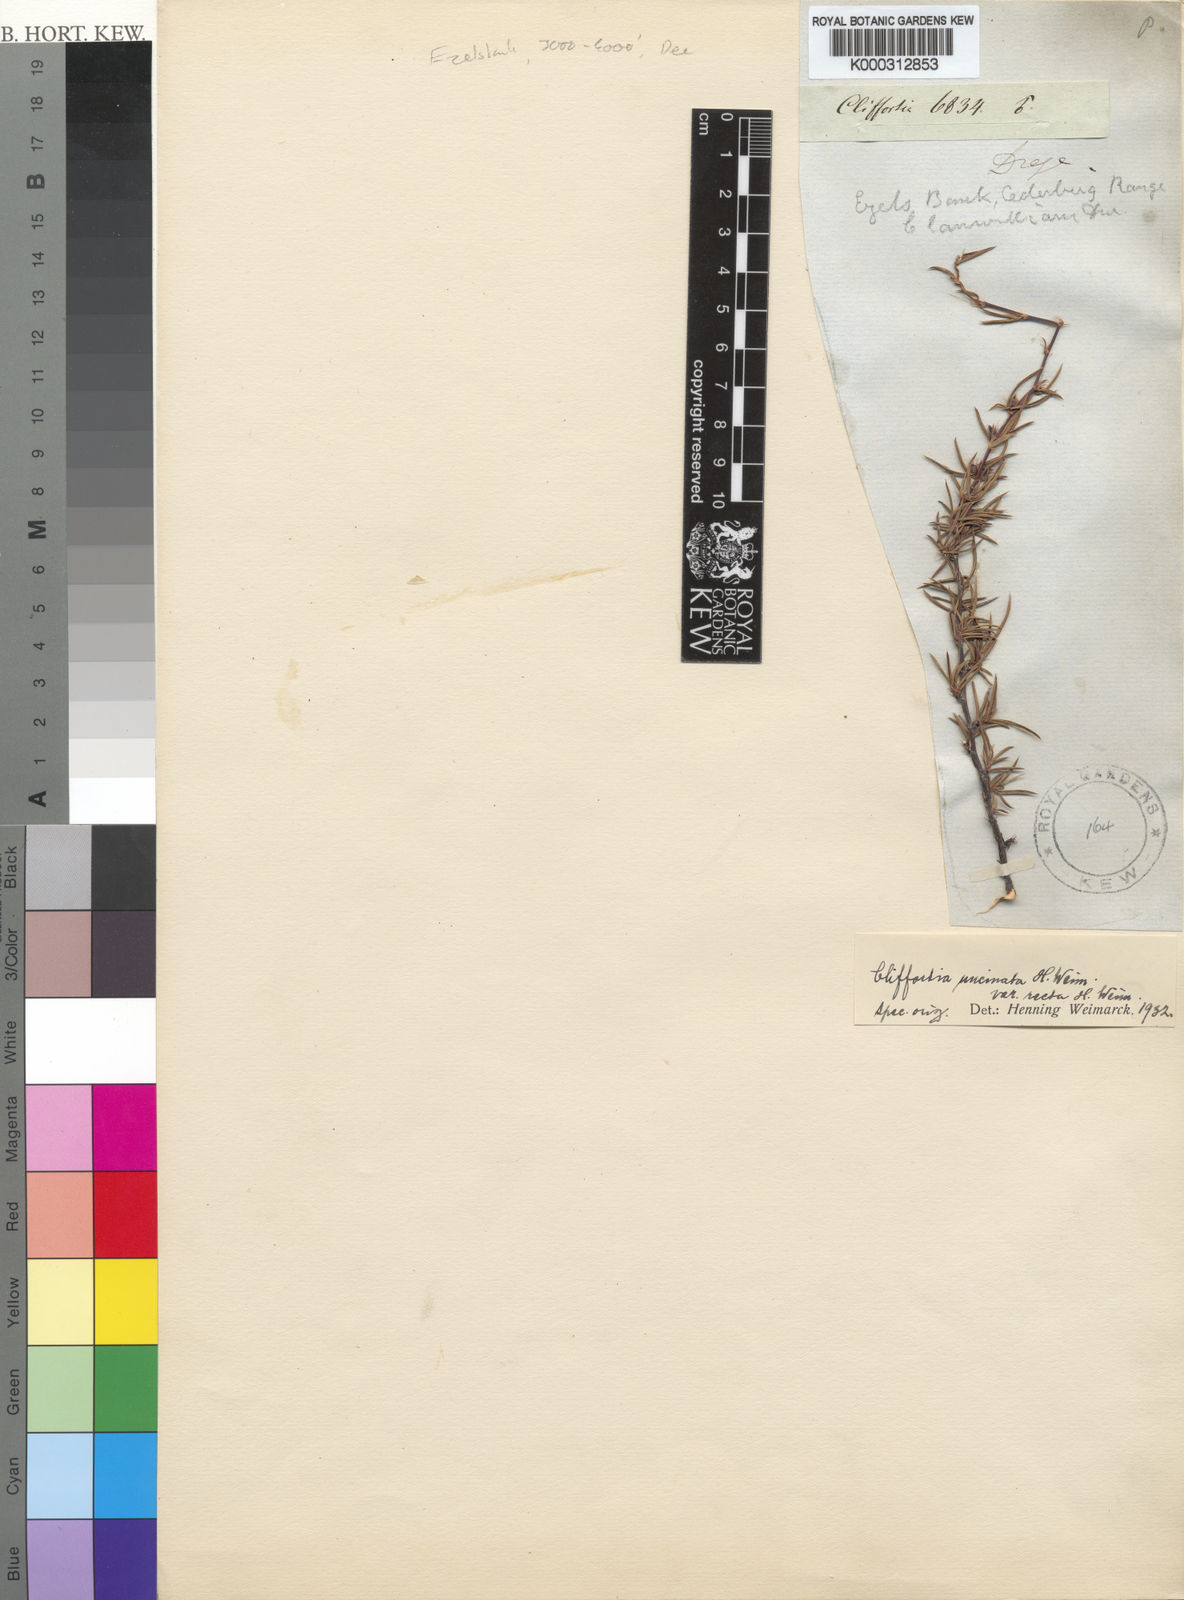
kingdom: Plantae
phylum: Tracheophyta
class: Magnoliopsida
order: Rosales
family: Rosaceae
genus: Cliffortia
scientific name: Cliffortia
